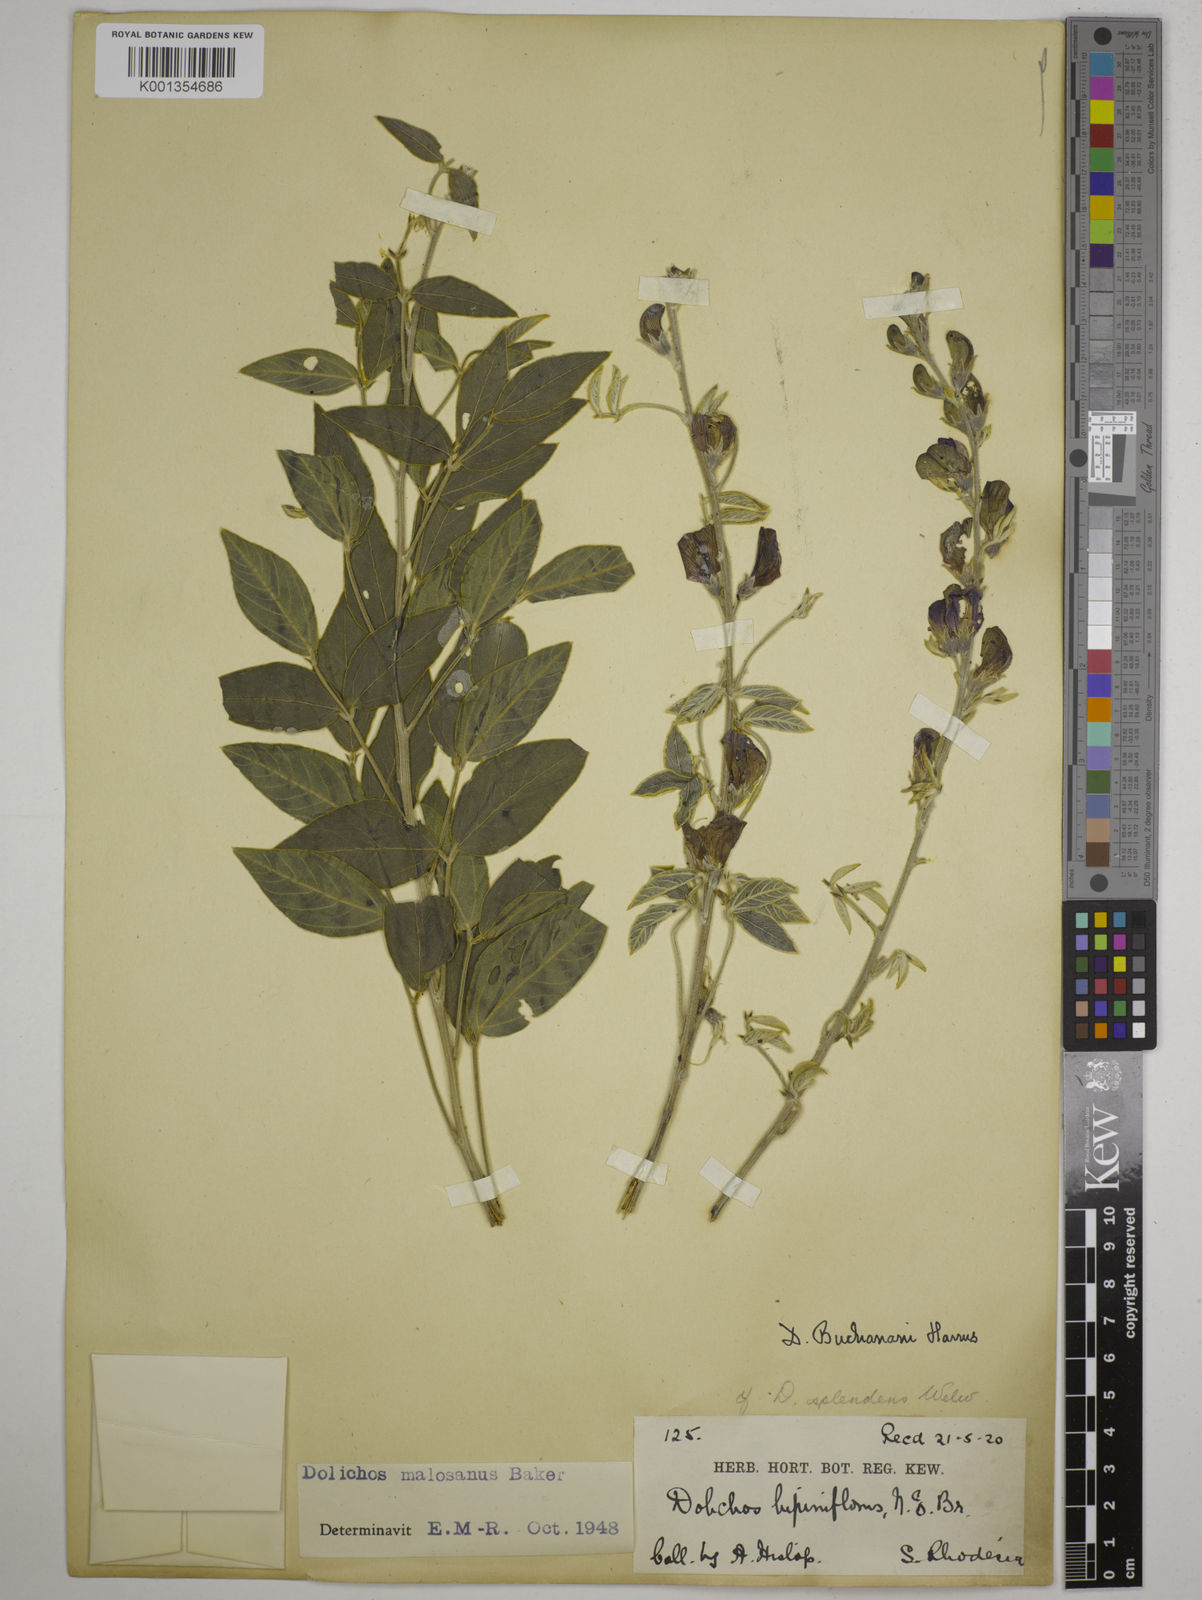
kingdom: Plantae
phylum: Tracheophyta
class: Magnoliopsida
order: Fabales
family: Fabaceae
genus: Dolichos
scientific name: Dolichos kilimandscharicus
